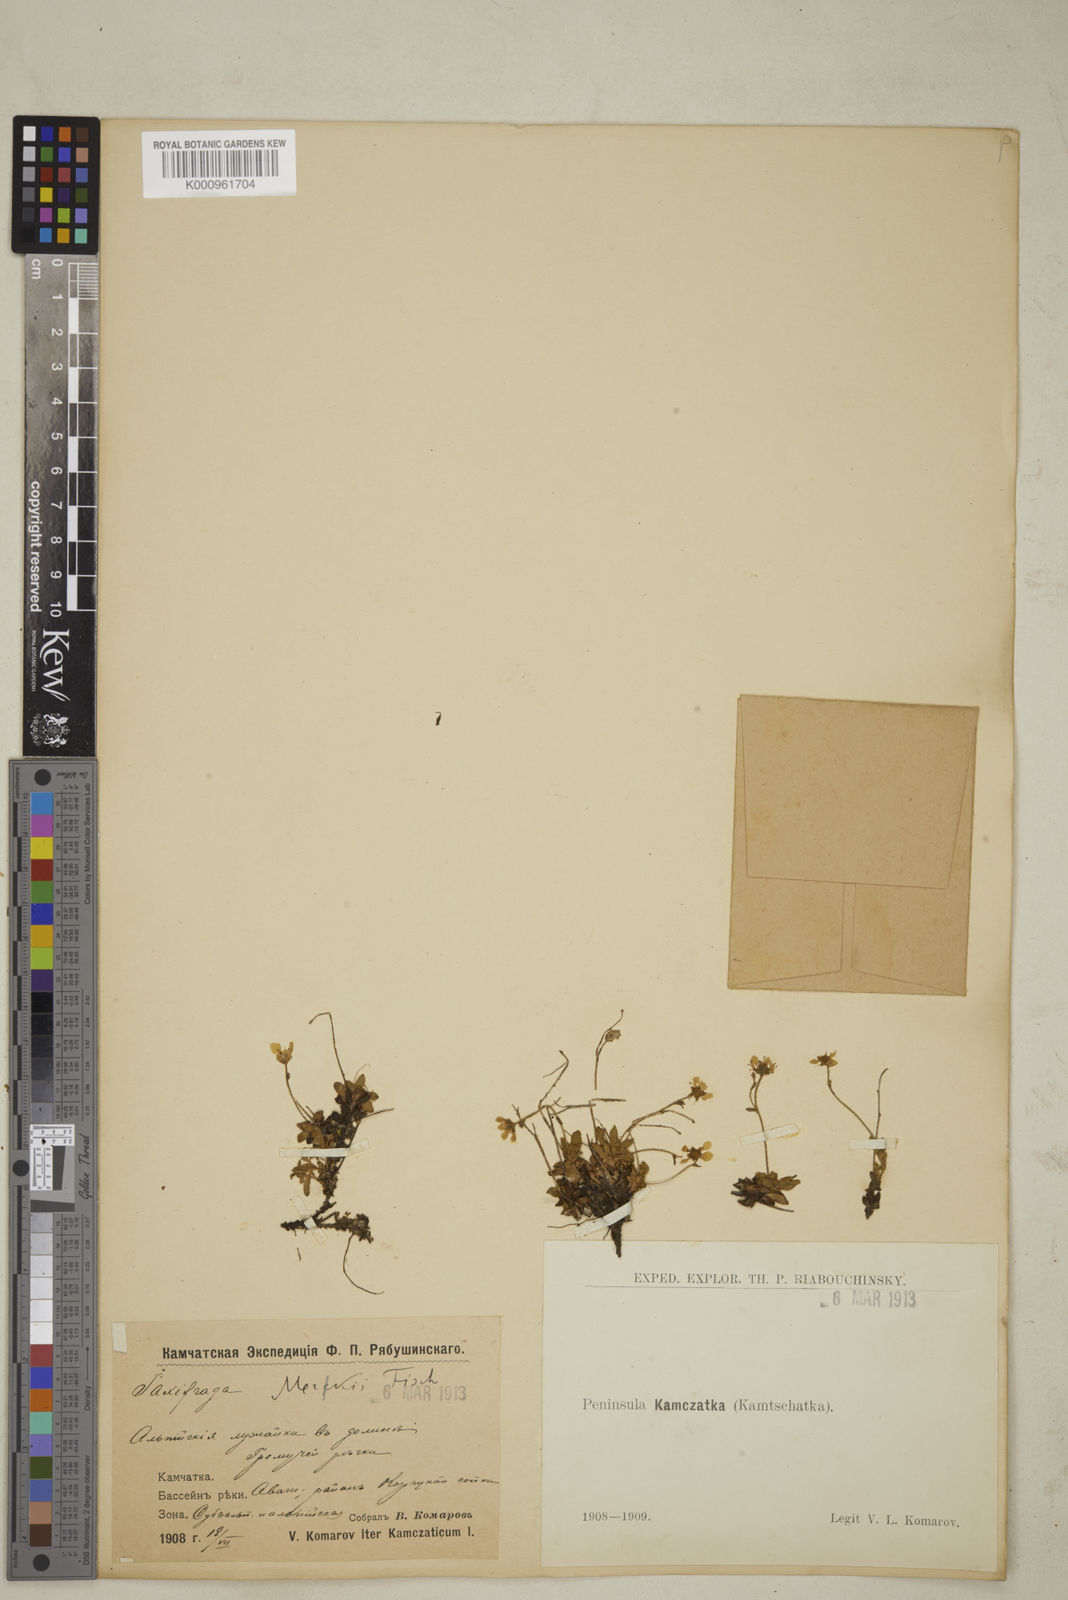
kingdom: Plantae
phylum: Tracheophyta
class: Magnoliopsida
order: Saxifragales
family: Saxifragaceae
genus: Micranthes
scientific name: Micranthes merkii
